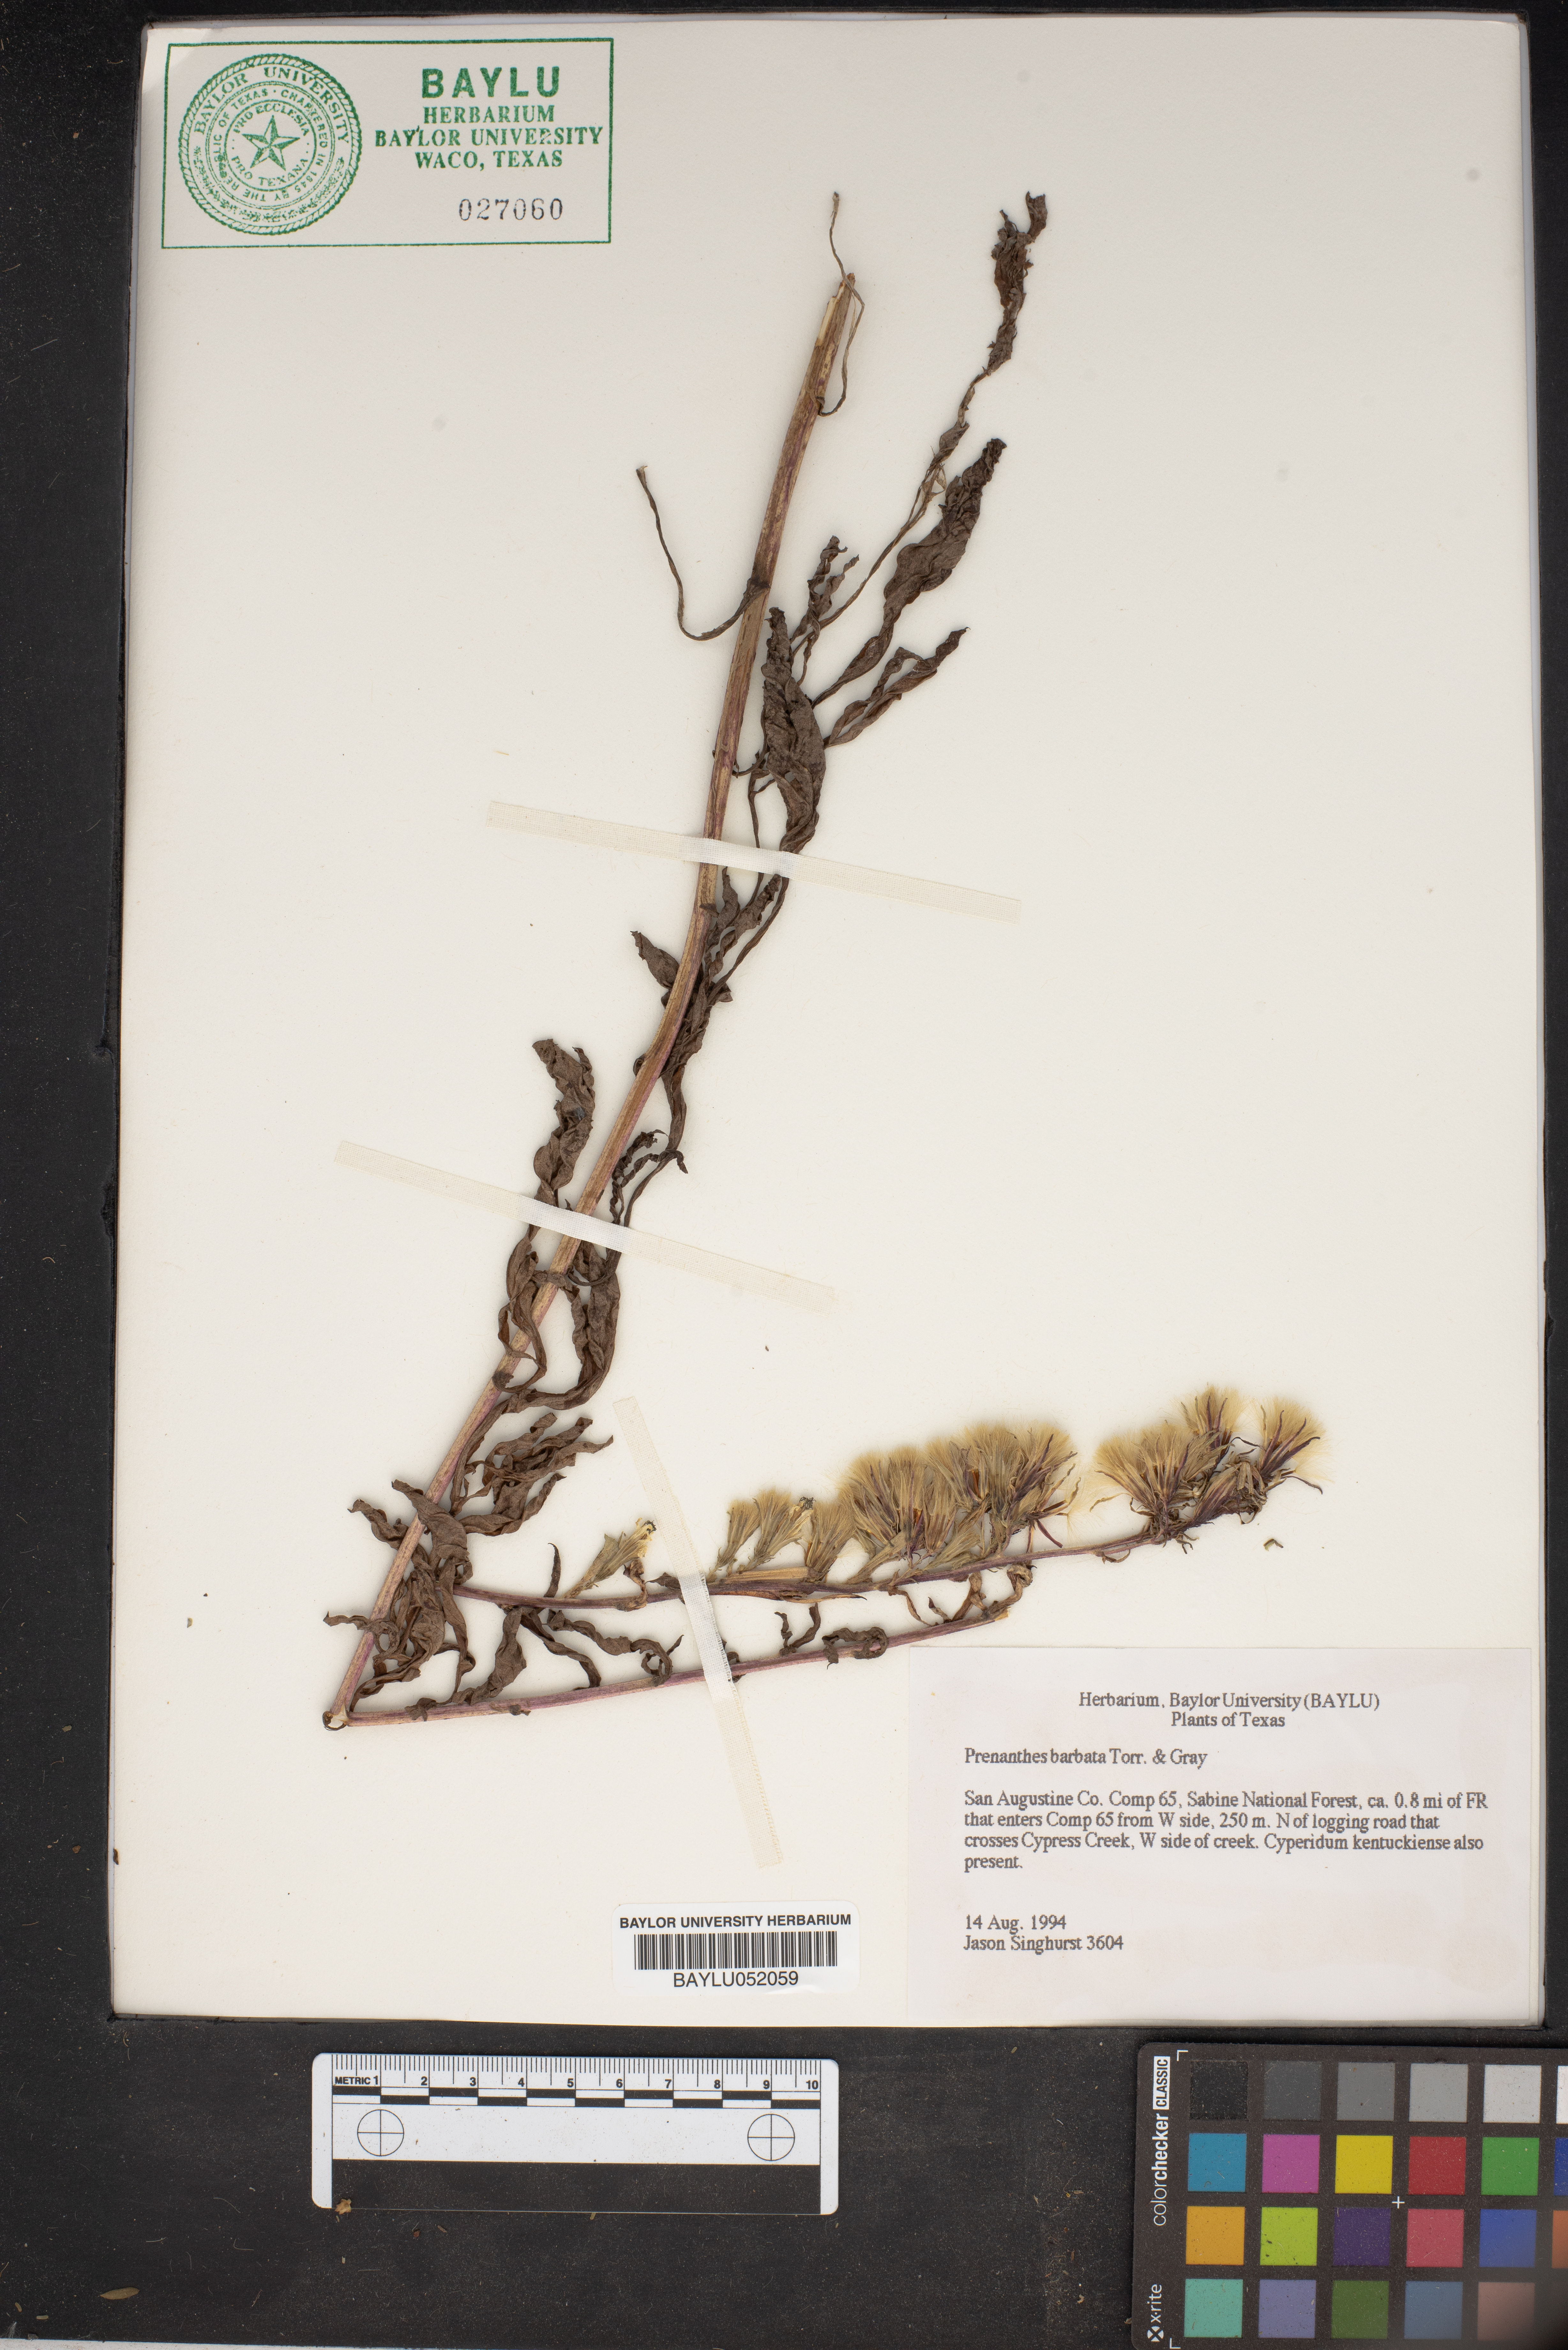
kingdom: Plantae
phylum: Tracheophyta
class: Magnoliopsida
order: Asterales
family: Asteraceae
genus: Nabalus
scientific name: Nabalus barbata
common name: Barbed rattlesnakeroot
